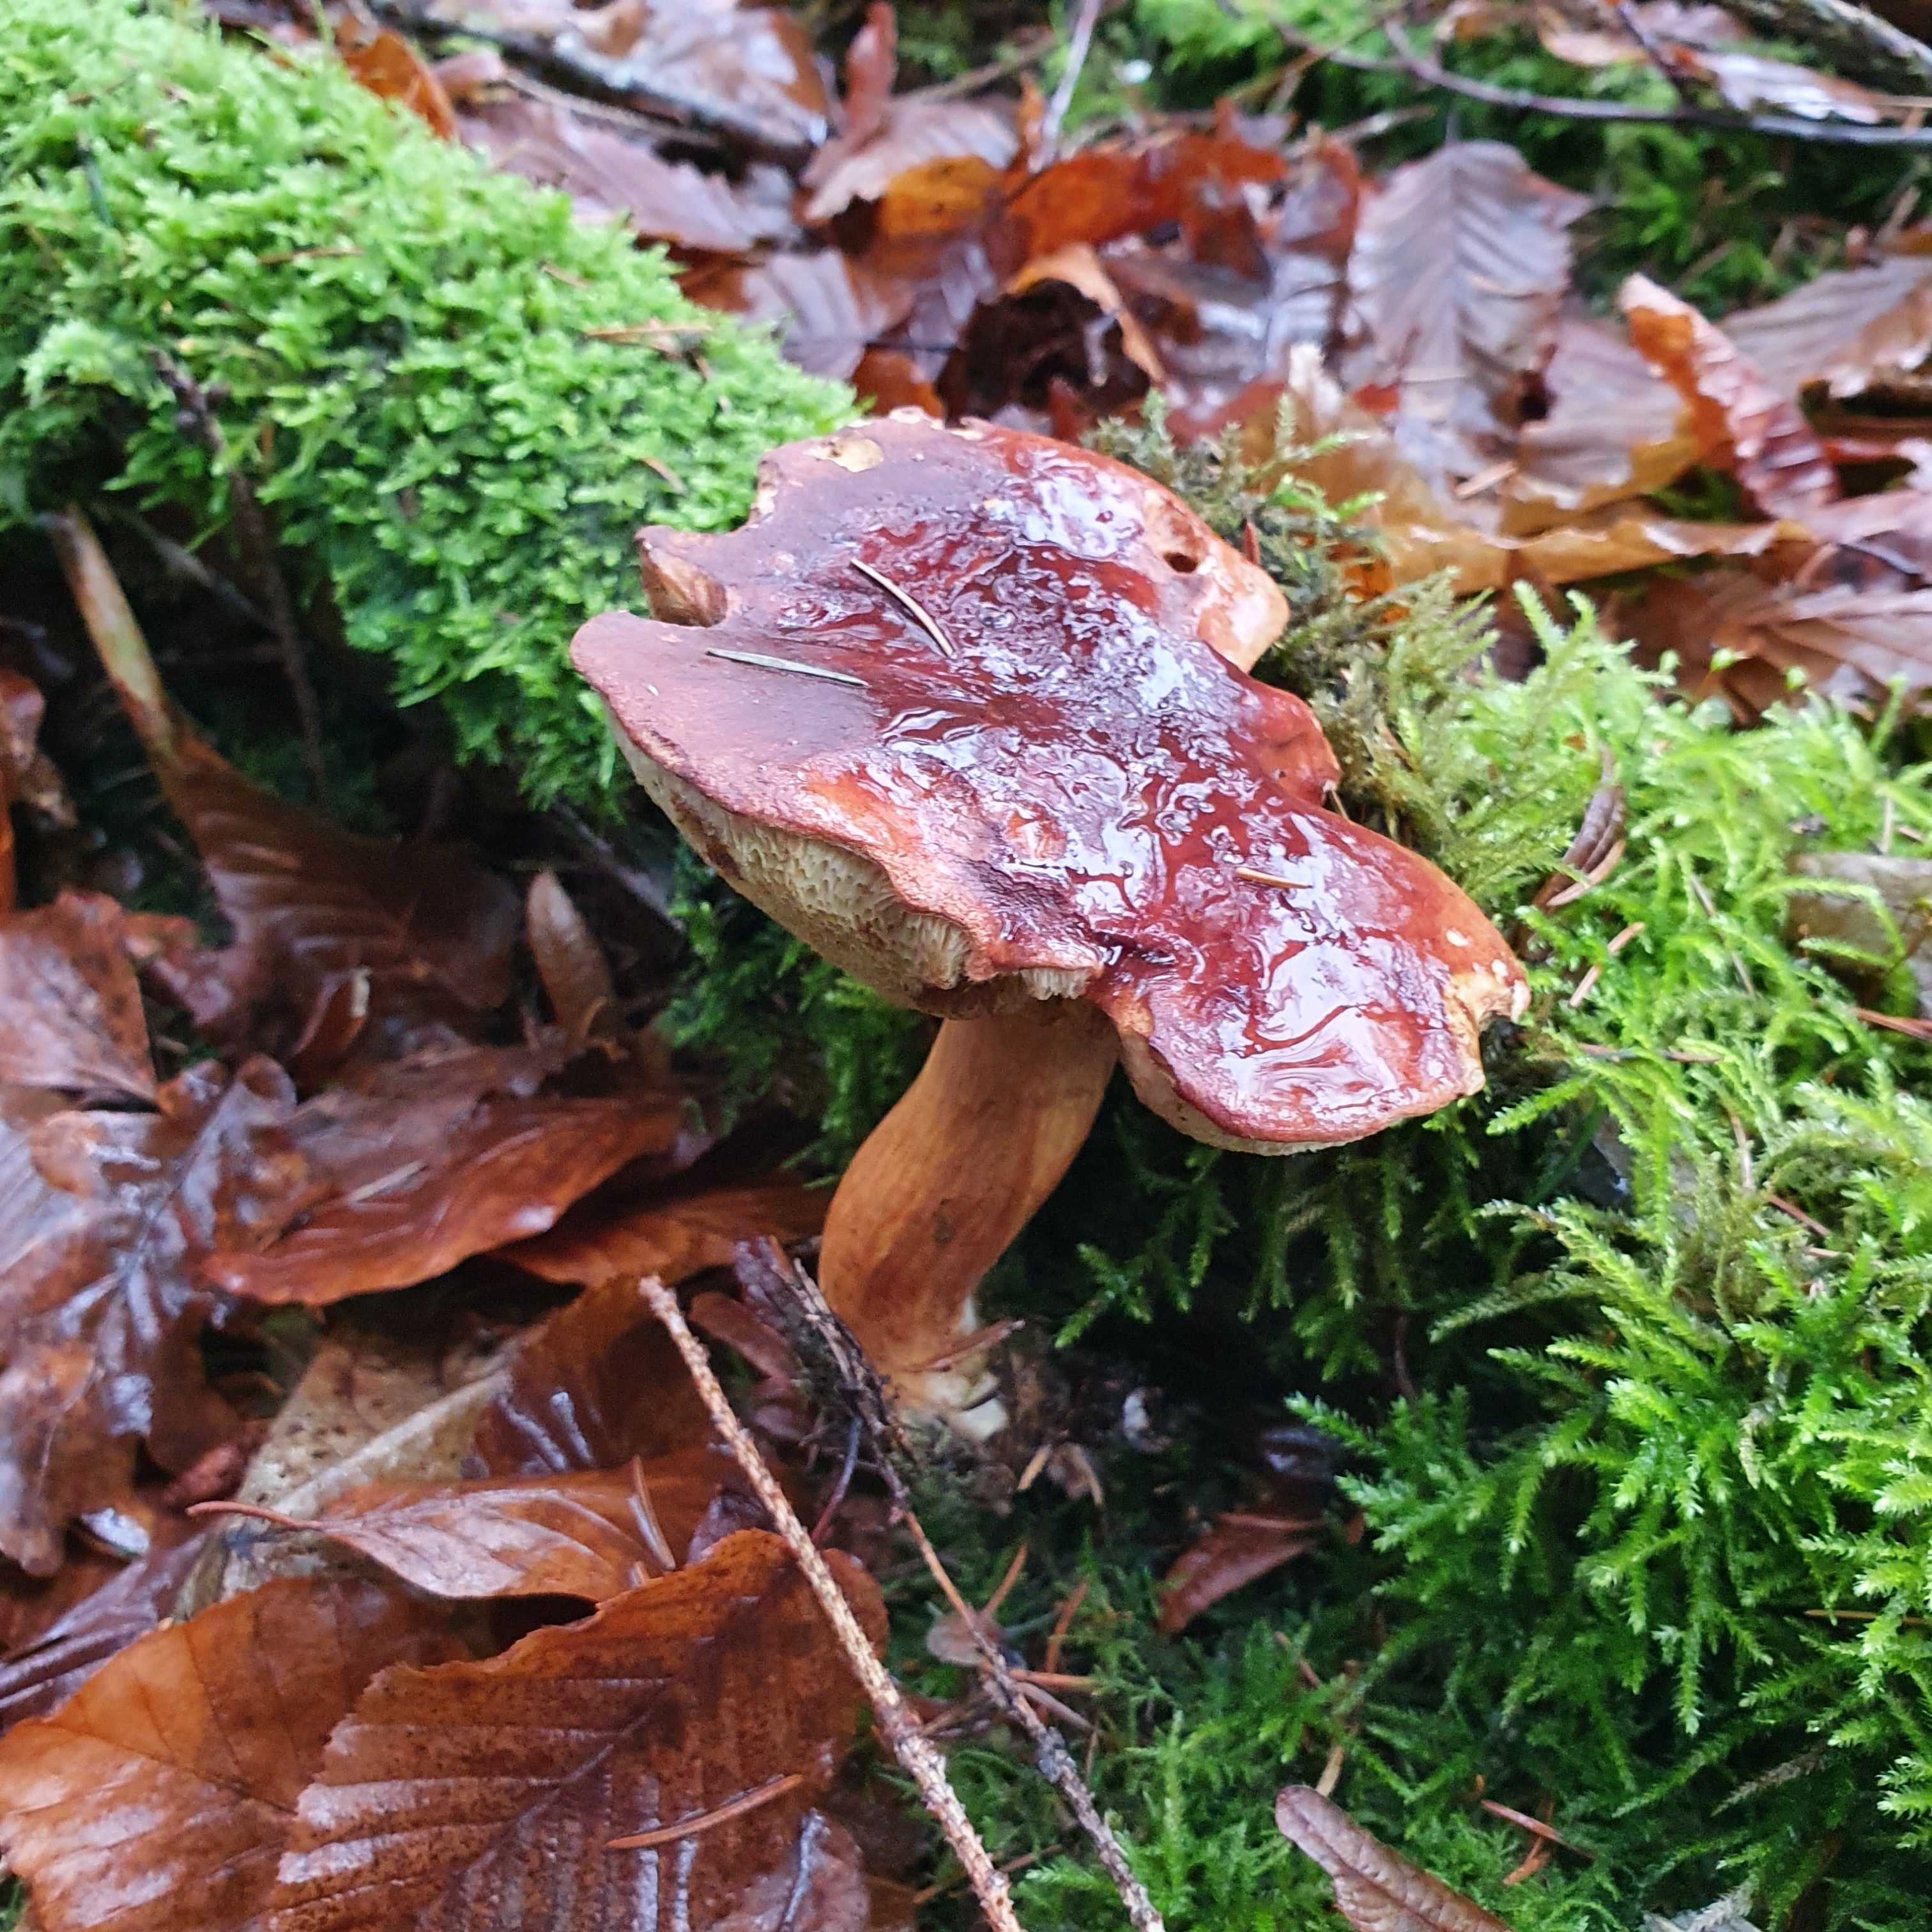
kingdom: Fungi
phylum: Basidiomycota
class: Agaricomycetes
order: Boletales
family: Boletaceae
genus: Imleria
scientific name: Imleria badia
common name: brunstokket rørhat
